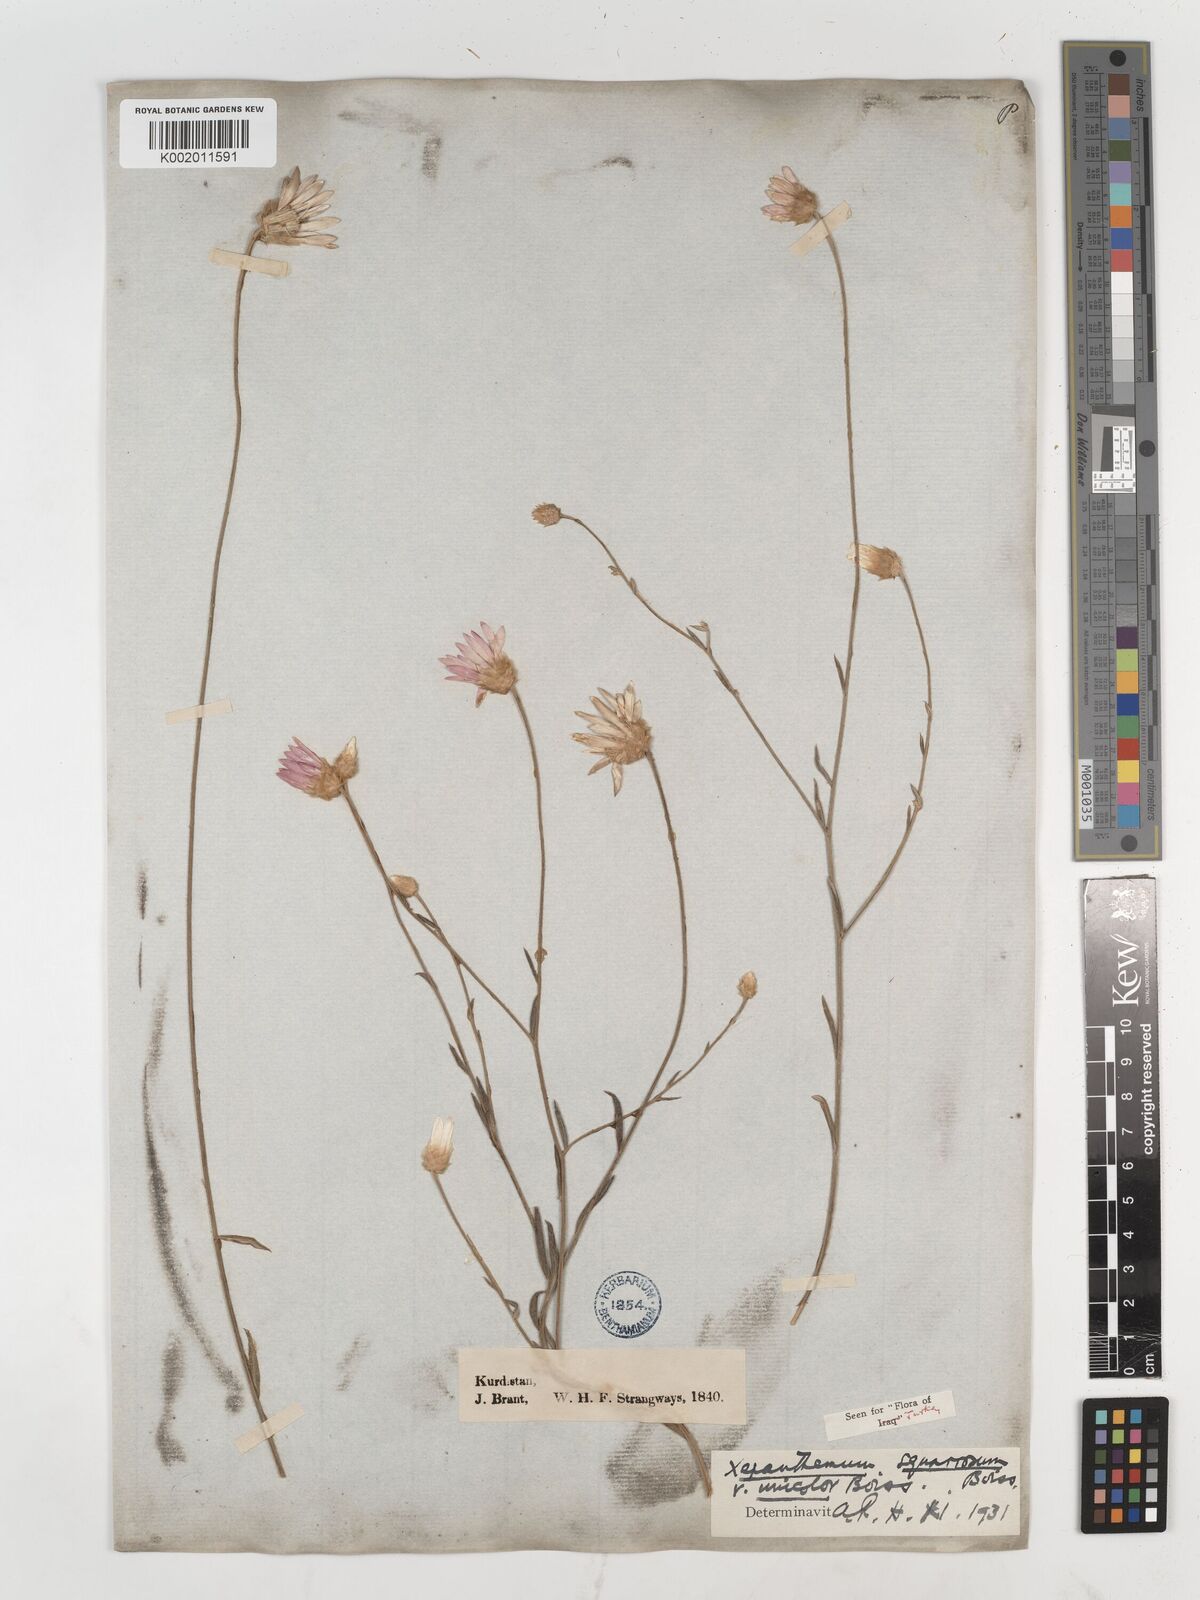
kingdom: Plantae
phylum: Tracheophyta
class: Magnoliopsida
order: Asterales
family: Asteraceae
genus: Xeranthemum
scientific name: Xeranthemum annuum
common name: Immortelle
